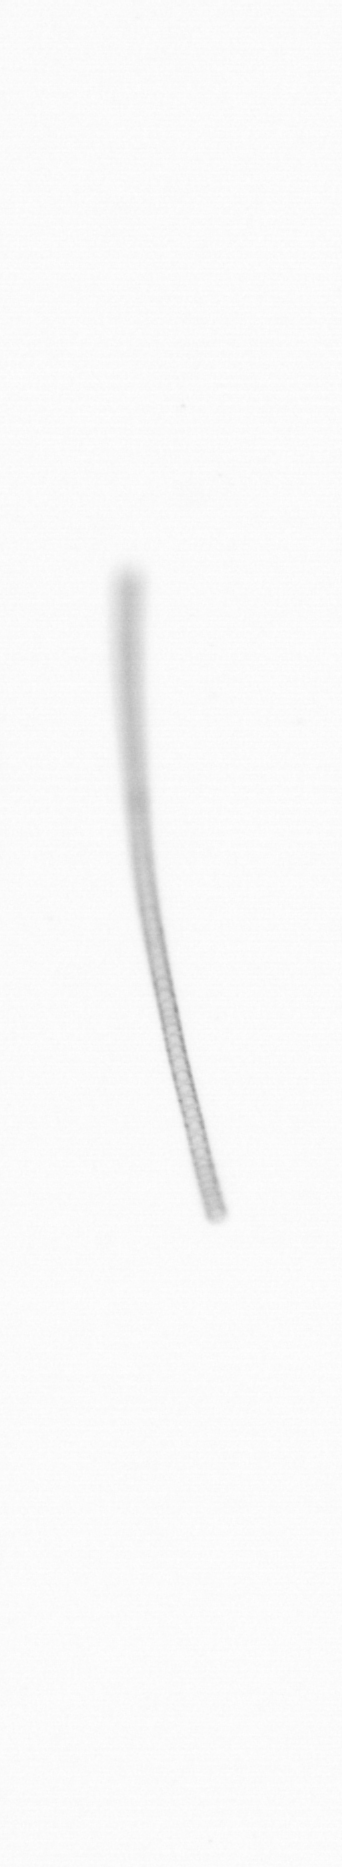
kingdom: Chromista
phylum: Ochrophyta
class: Bacillariophyceae
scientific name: Bacillariophyceae
